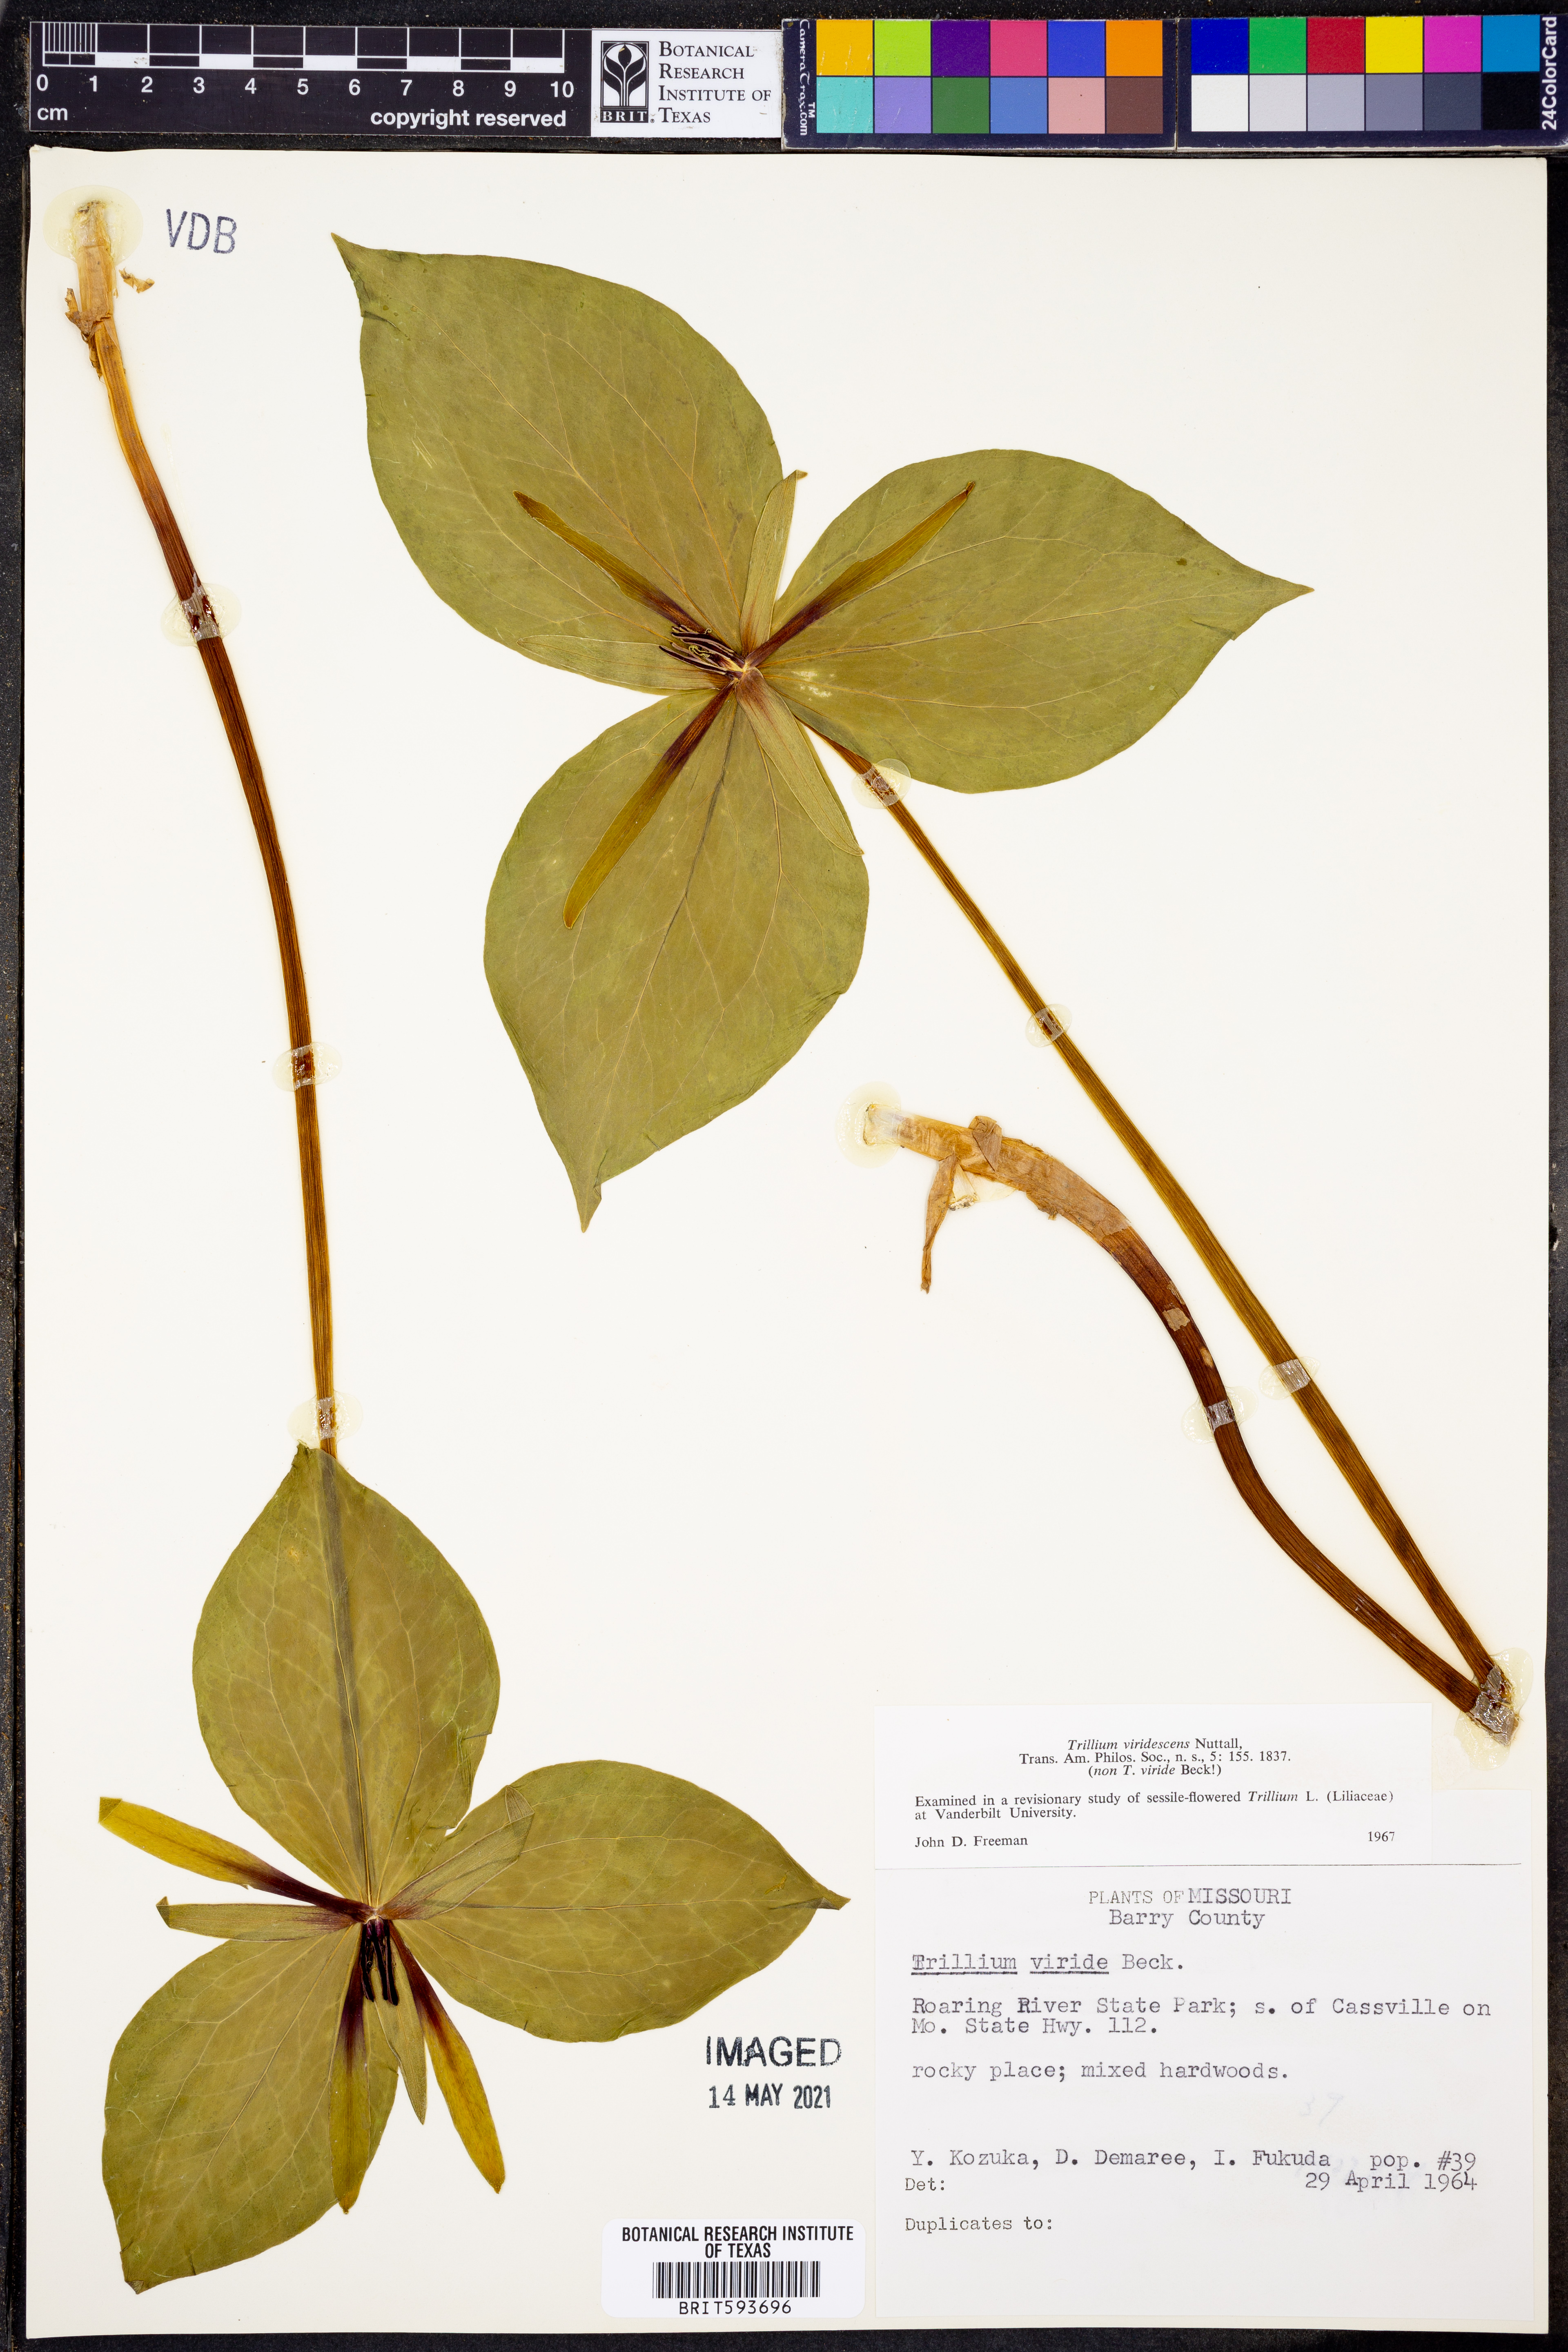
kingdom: Plantae
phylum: Tracheophyta
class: Liliopsida
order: Liliales
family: Melanthiaceae
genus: Trillium
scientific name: Trillium viridescens
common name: Ozark green trillium
